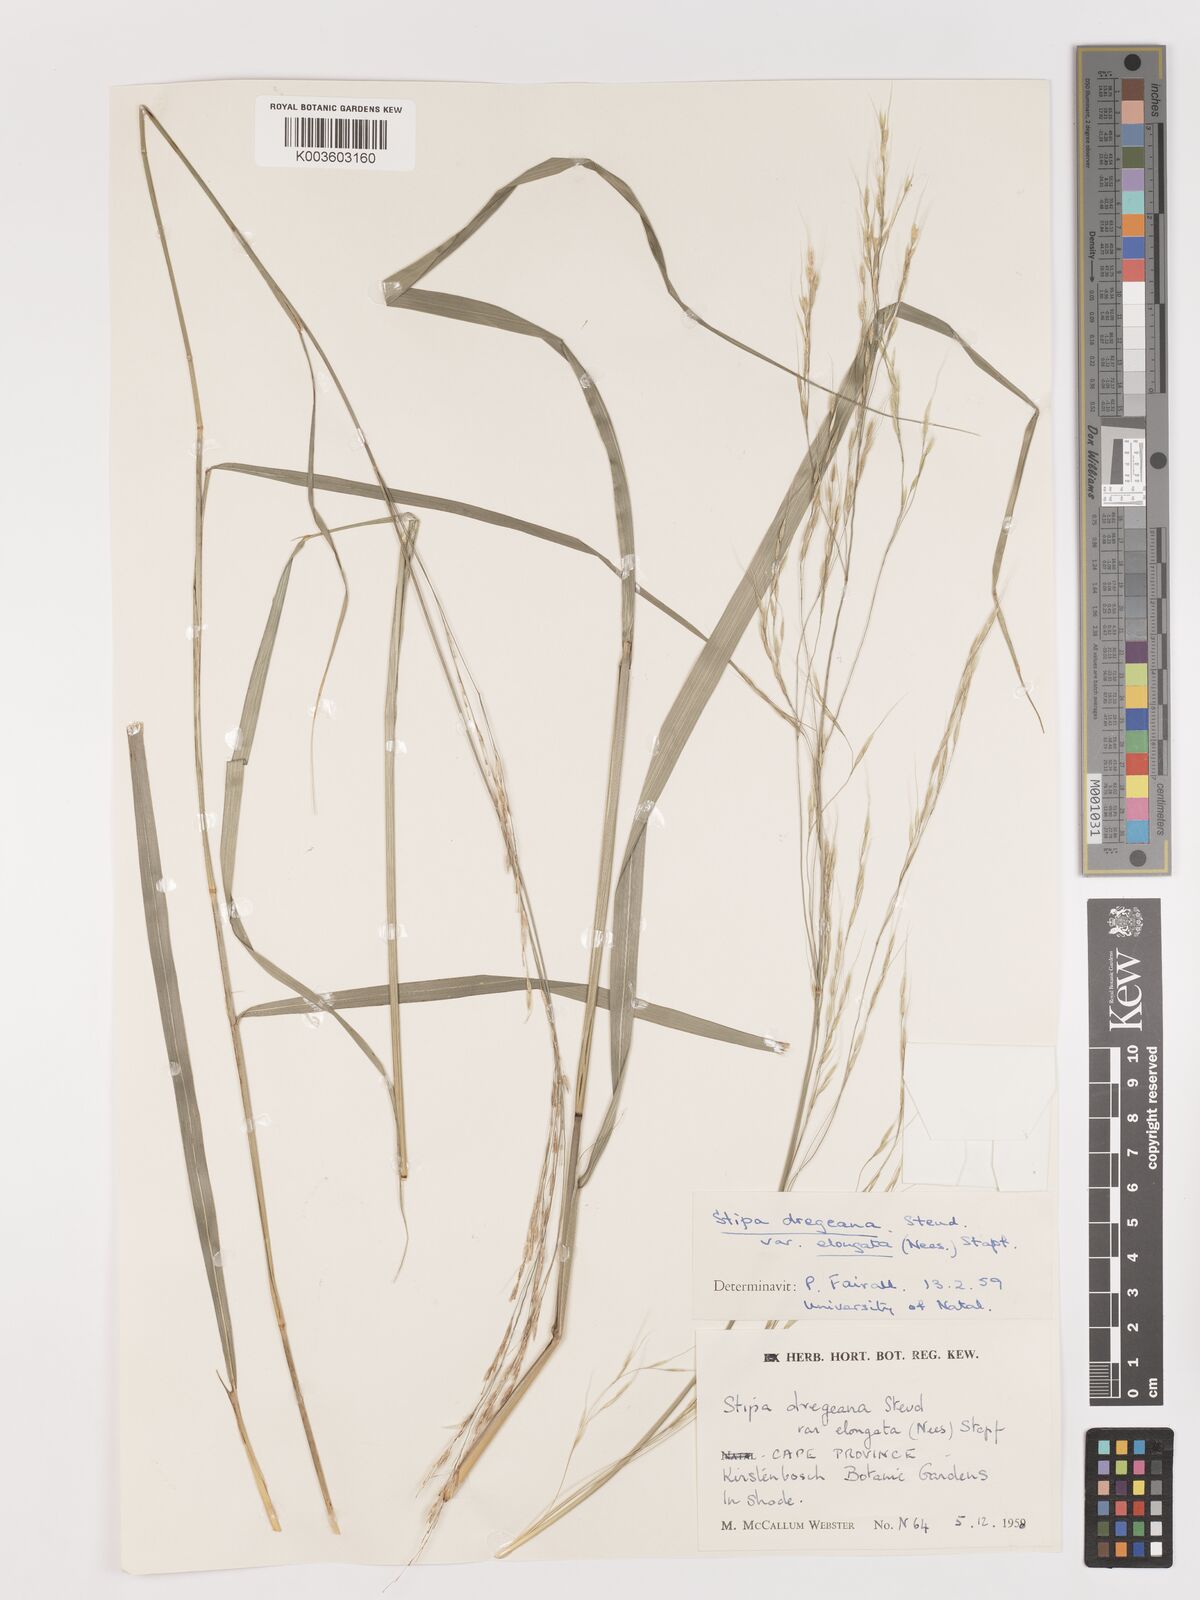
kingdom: Plantae
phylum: Tracheophyta
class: Liliopsida
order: Poales
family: Poaceae
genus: Stipa
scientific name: Stipa dregeana
